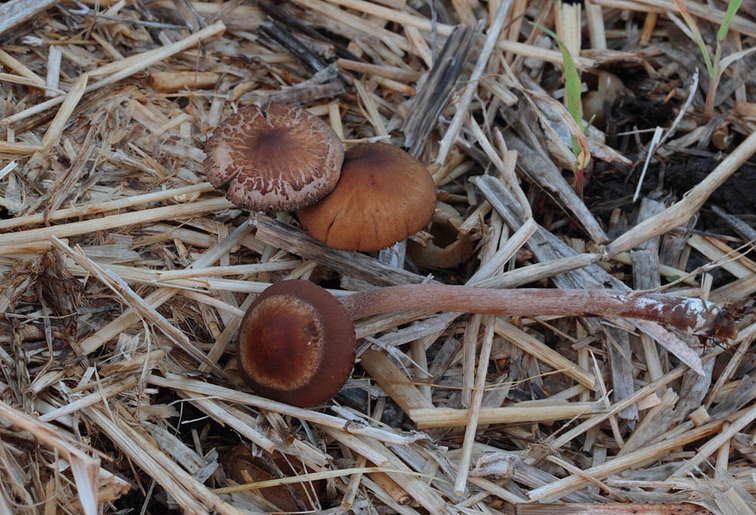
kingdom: Fungi
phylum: Basidiomycota
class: Agaricomycetes
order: Agaricales
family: Bolbitiaceae
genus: Panaeolus
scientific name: Panaeolus cinctulus
